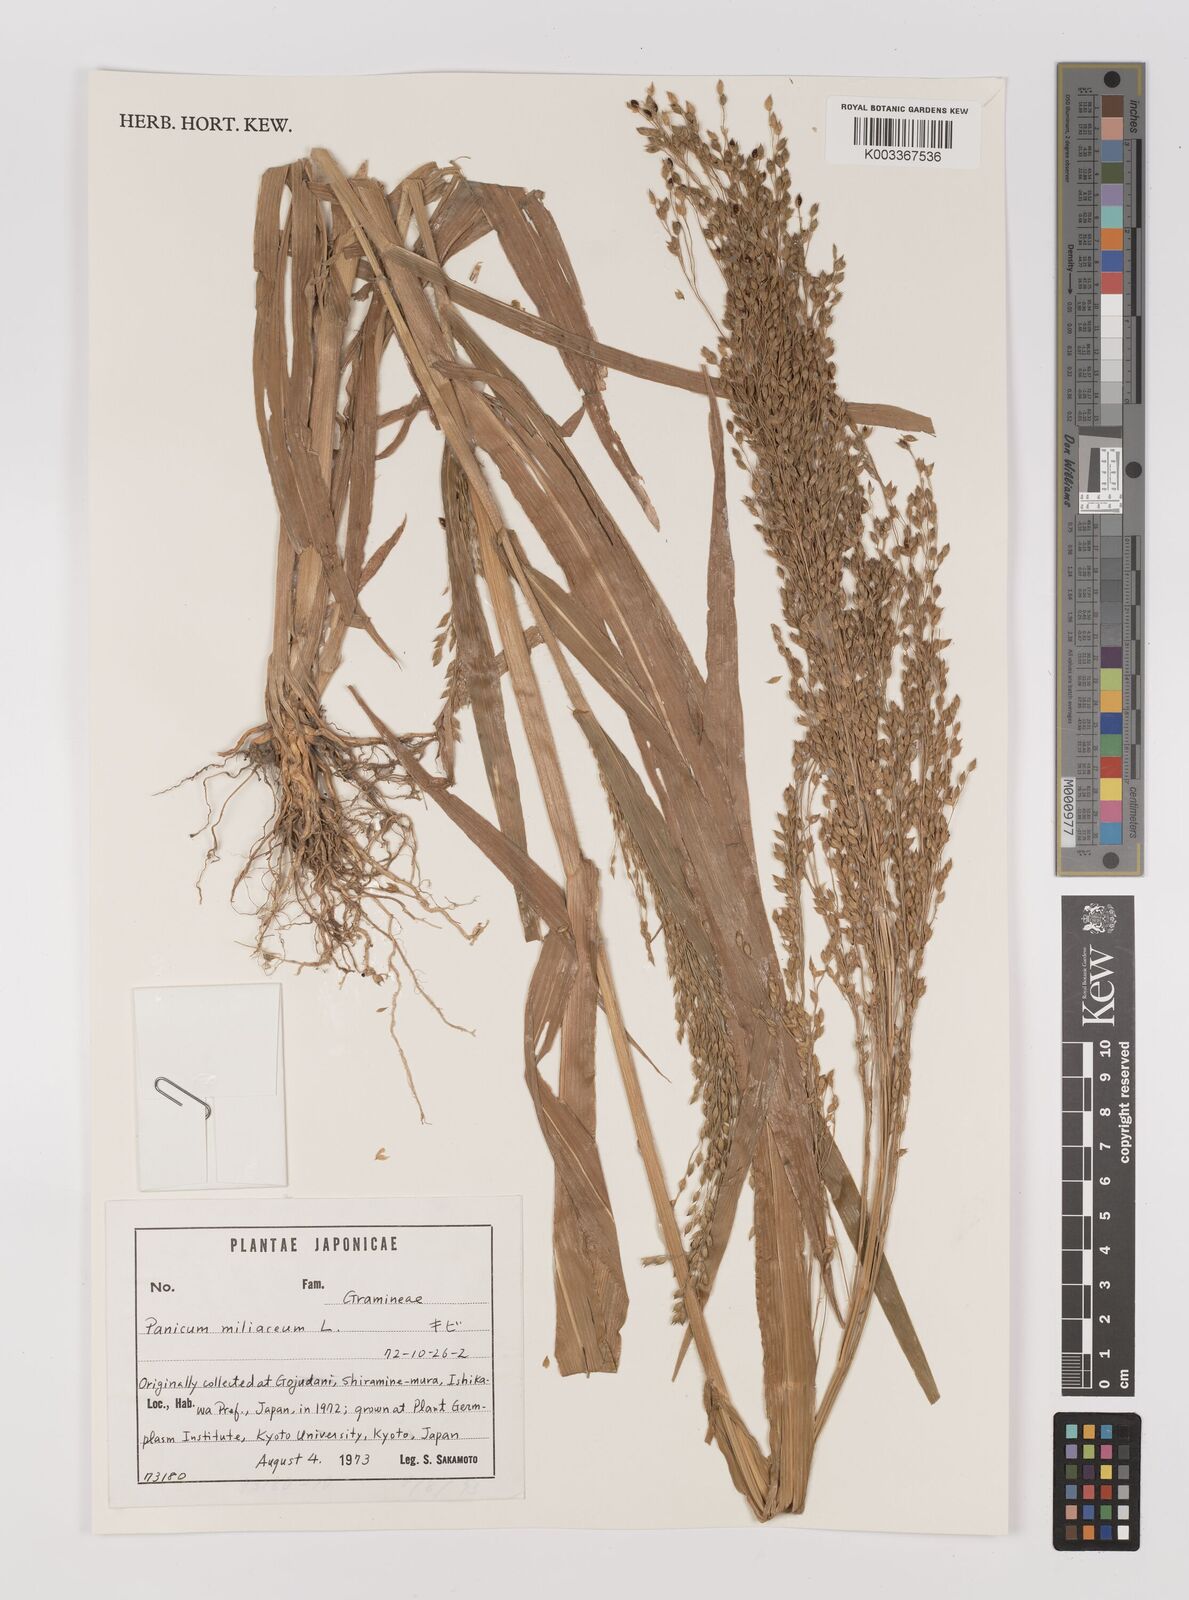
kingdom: Plantae
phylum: Tracheophyta
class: Liliopsida
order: Poales
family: Poaceae
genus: Panicum
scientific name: Panicum miliaceum
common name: Common millet
